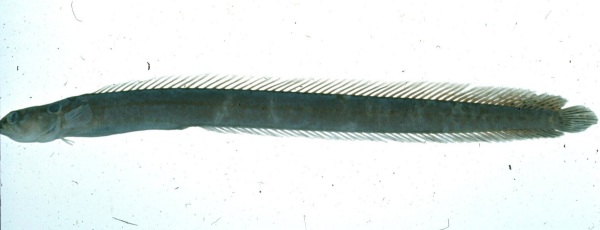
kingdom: Animalia
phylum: Chordata
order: Perciformes
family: Pseudochromidae
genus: Halidesmus
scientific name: Halidesmus scapularis
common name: Snakelet
